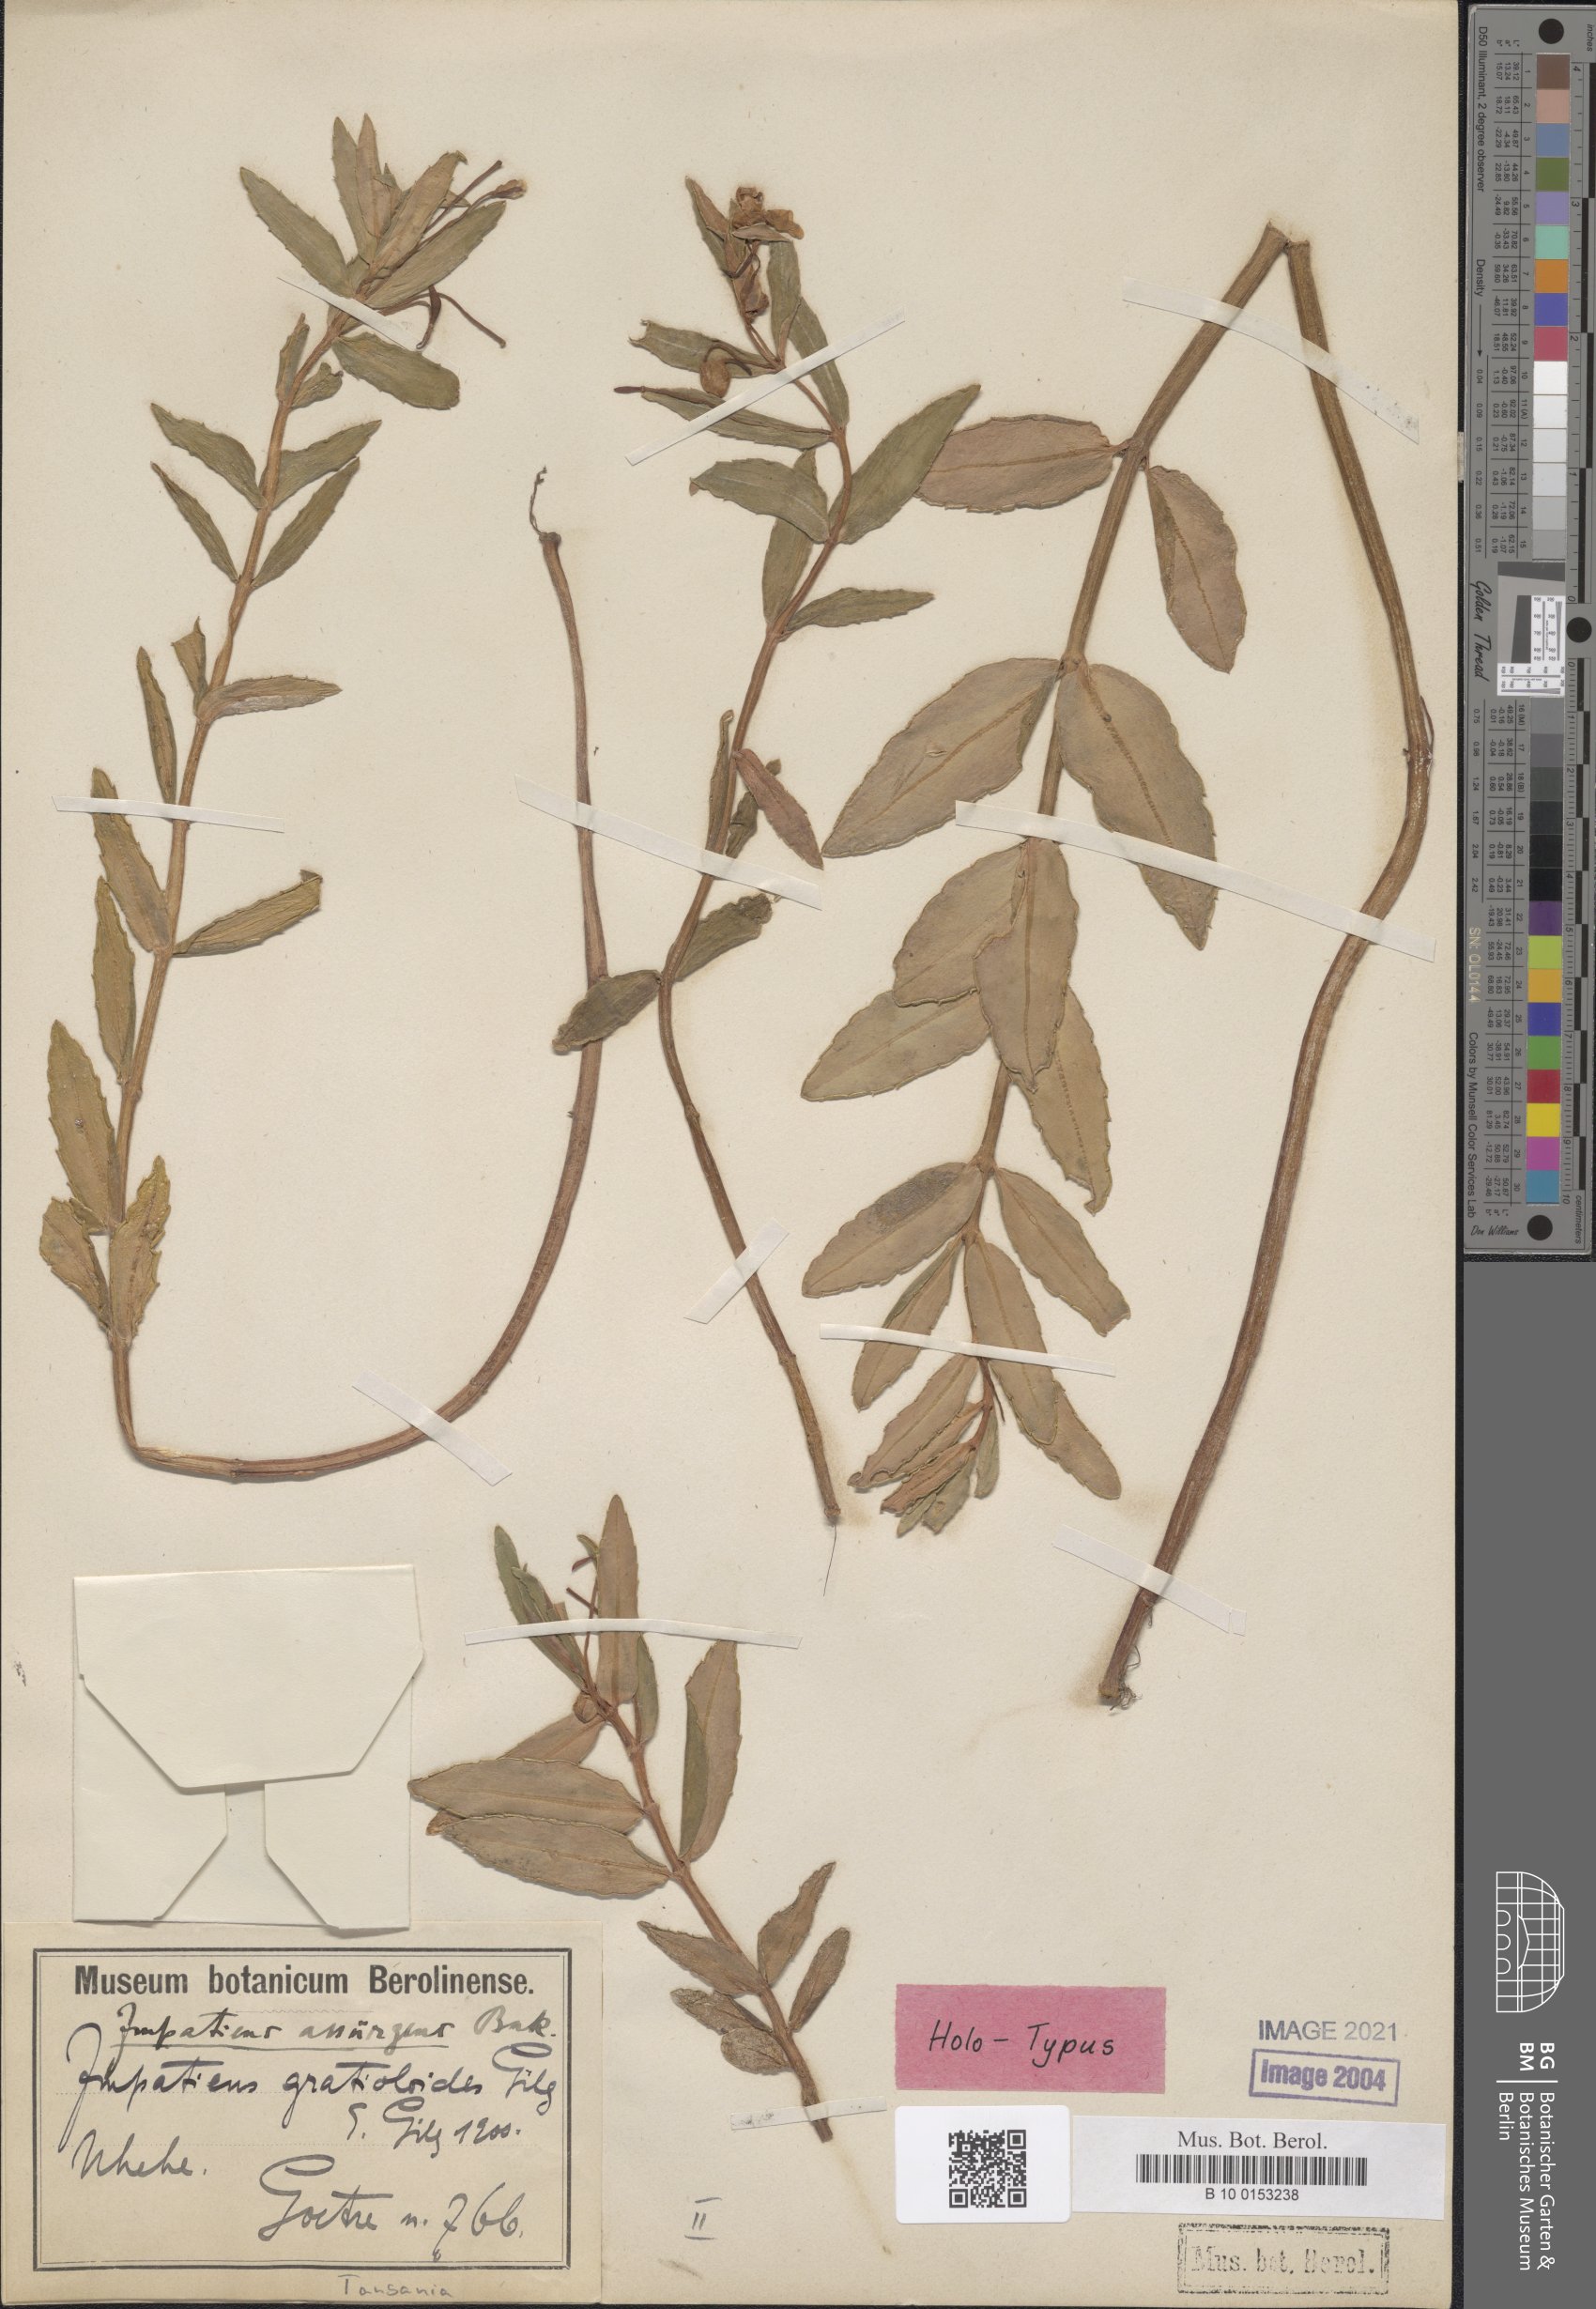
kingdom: Plantae
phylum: Tracheophyta
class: Magnoliopsida
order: Ericales
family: Balsaminaceae
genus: Impatiens
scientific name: Impatiens assurgens
